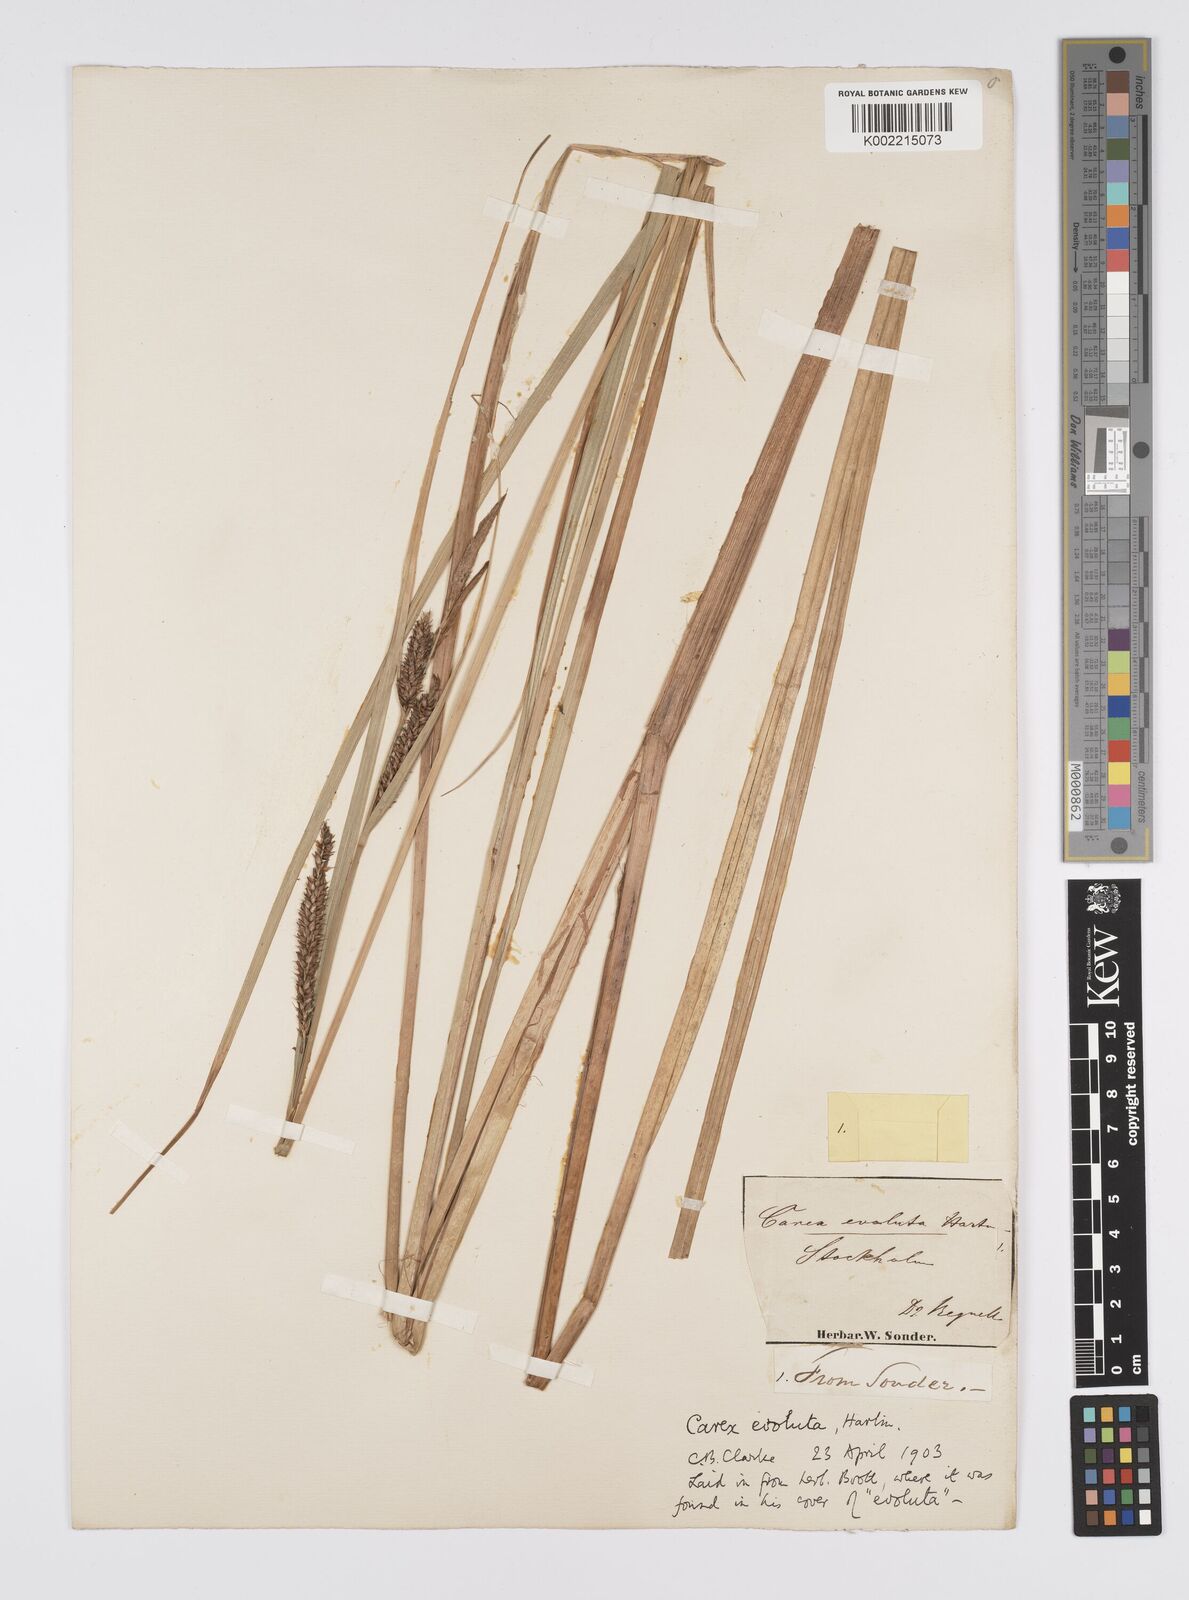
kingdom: Plantae
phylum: Tracheophyta
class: Liliopsida
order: Poales
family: Cyperaceae
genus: Carex
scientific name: Carex evoluta
